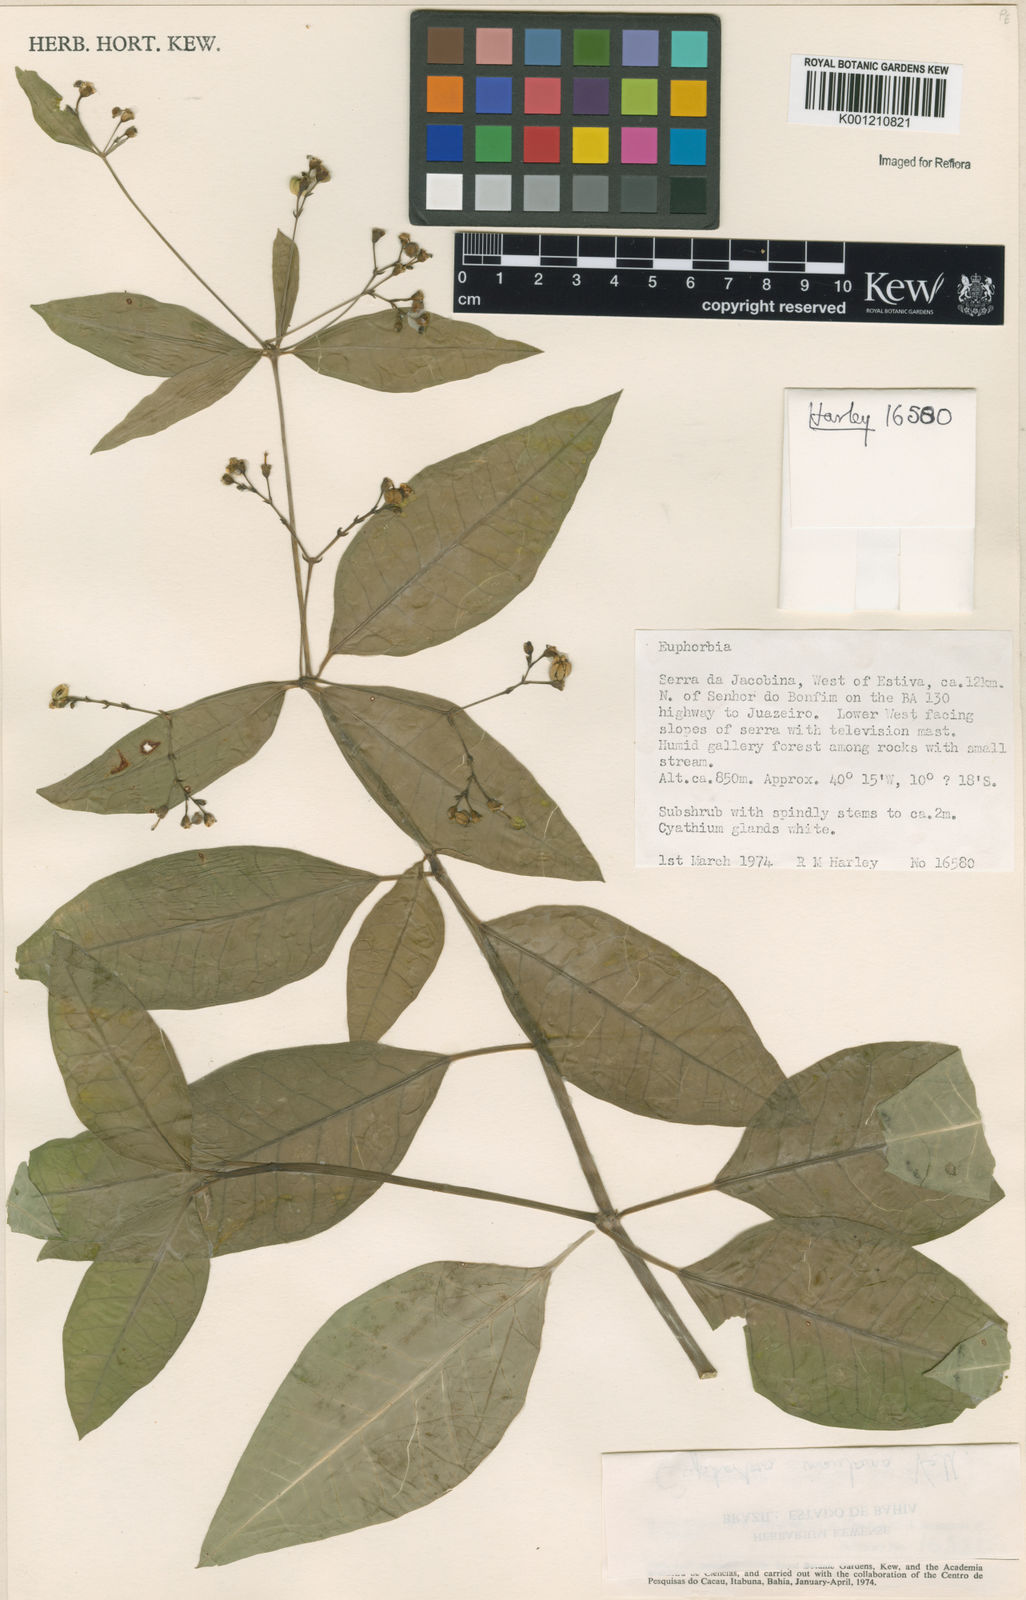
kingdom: Plantae
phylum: Tracheophyta
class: Magnoliopsida
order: Malpighiales
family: Euphorbiaceae
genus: Euphorbia
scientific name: Euphorbia insulana
